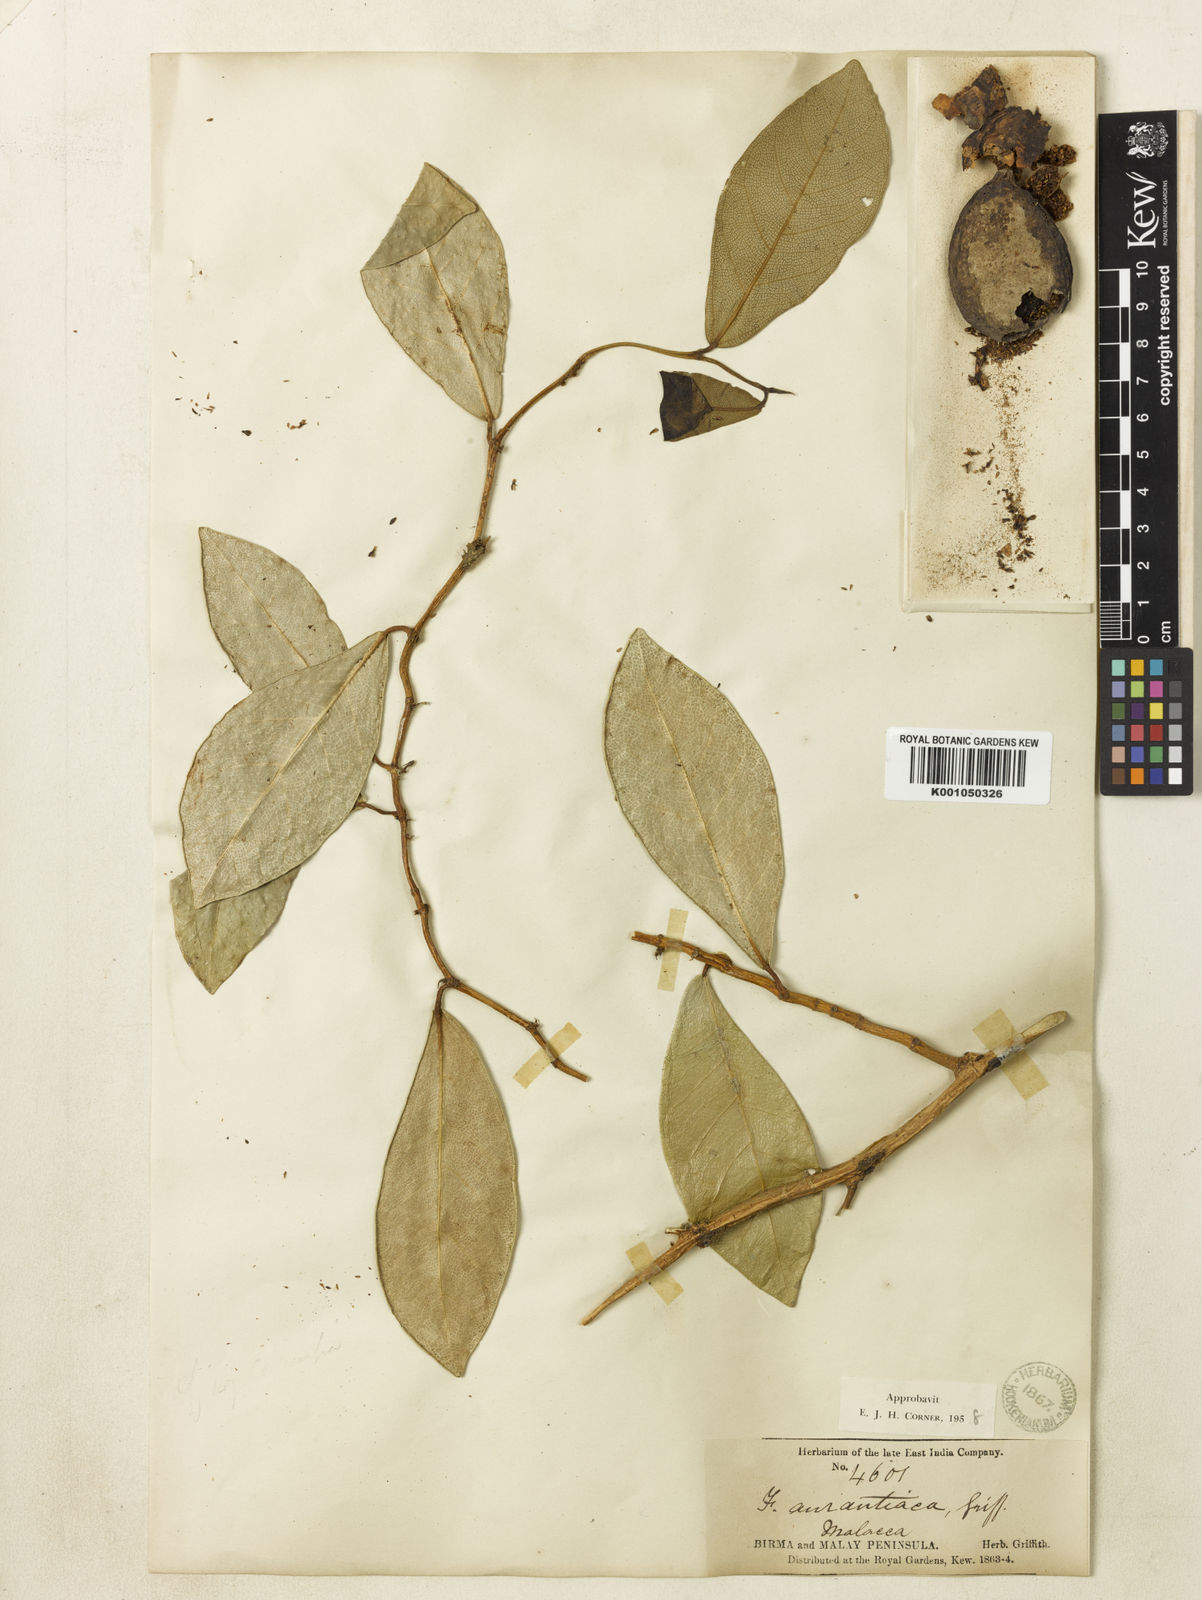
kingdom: Plantae
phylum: Tracheophyta
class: Magnoliopsida
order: Rosales
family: Moraceae
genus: Ficus
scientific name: Ficus
